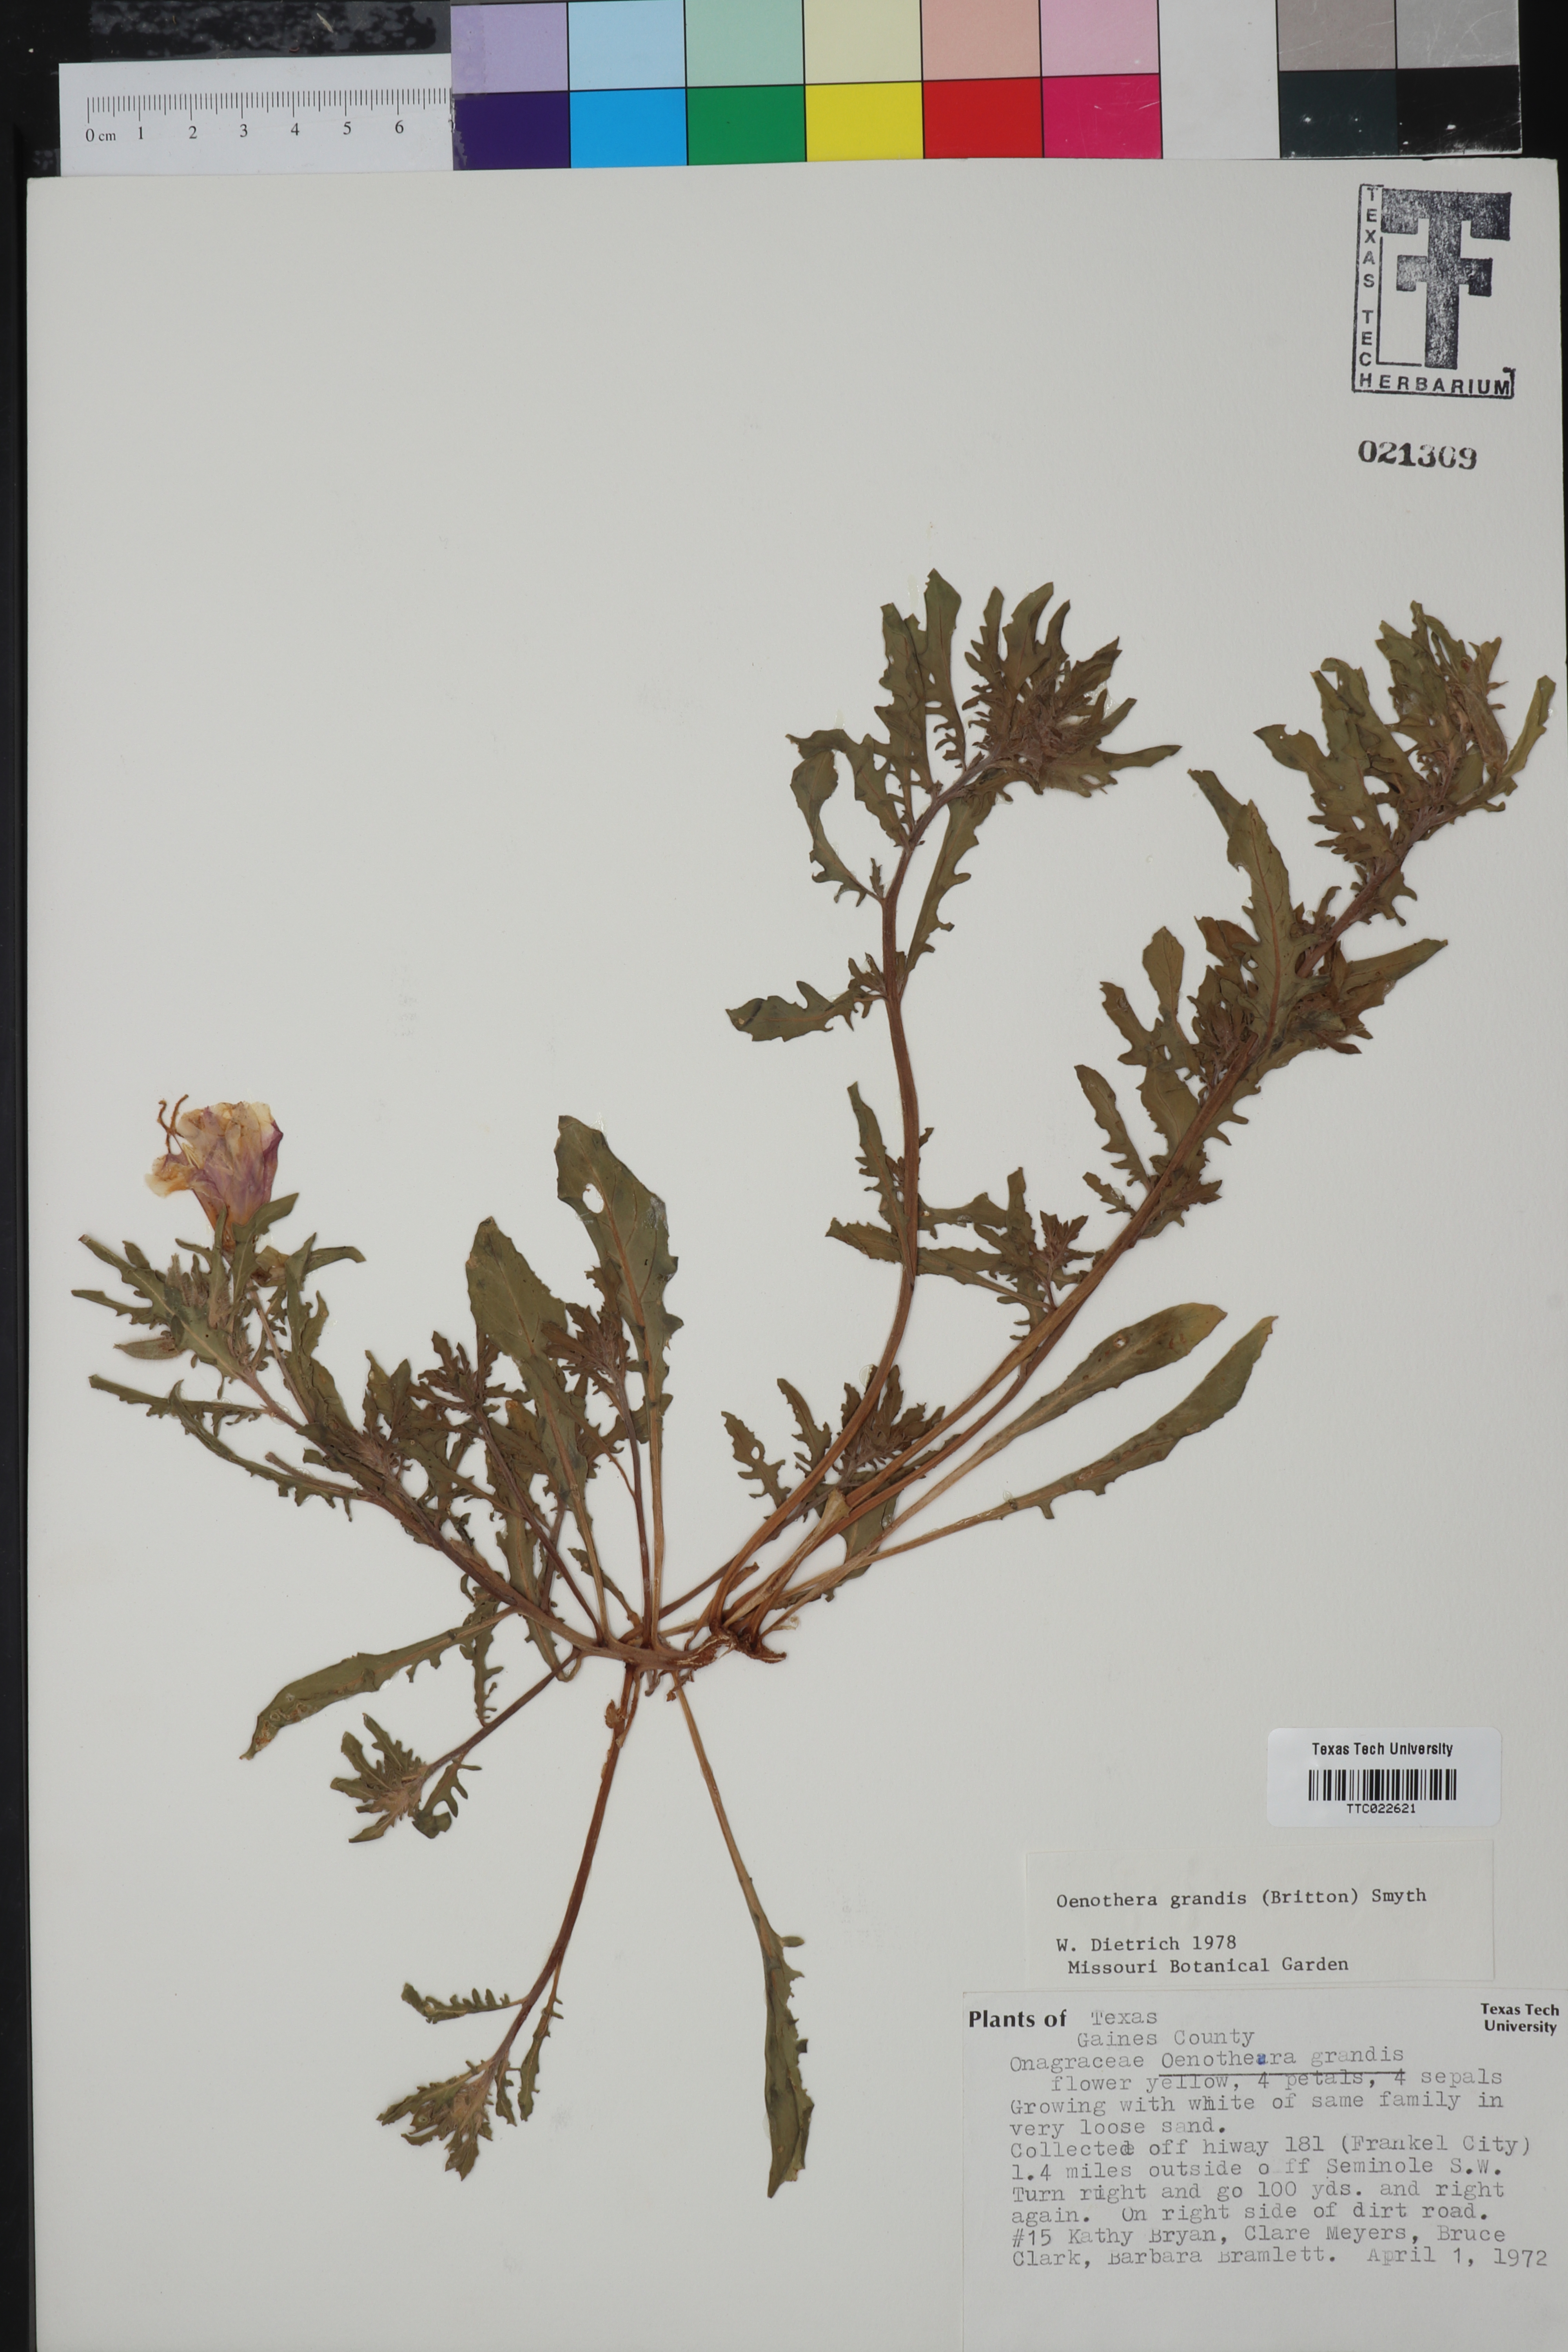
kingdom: Plantae
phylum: Tracheophyta
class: Magnoliopsida
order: Myrtales
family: Onagraceae
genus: Oenothera
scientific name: Oenothera grandis
